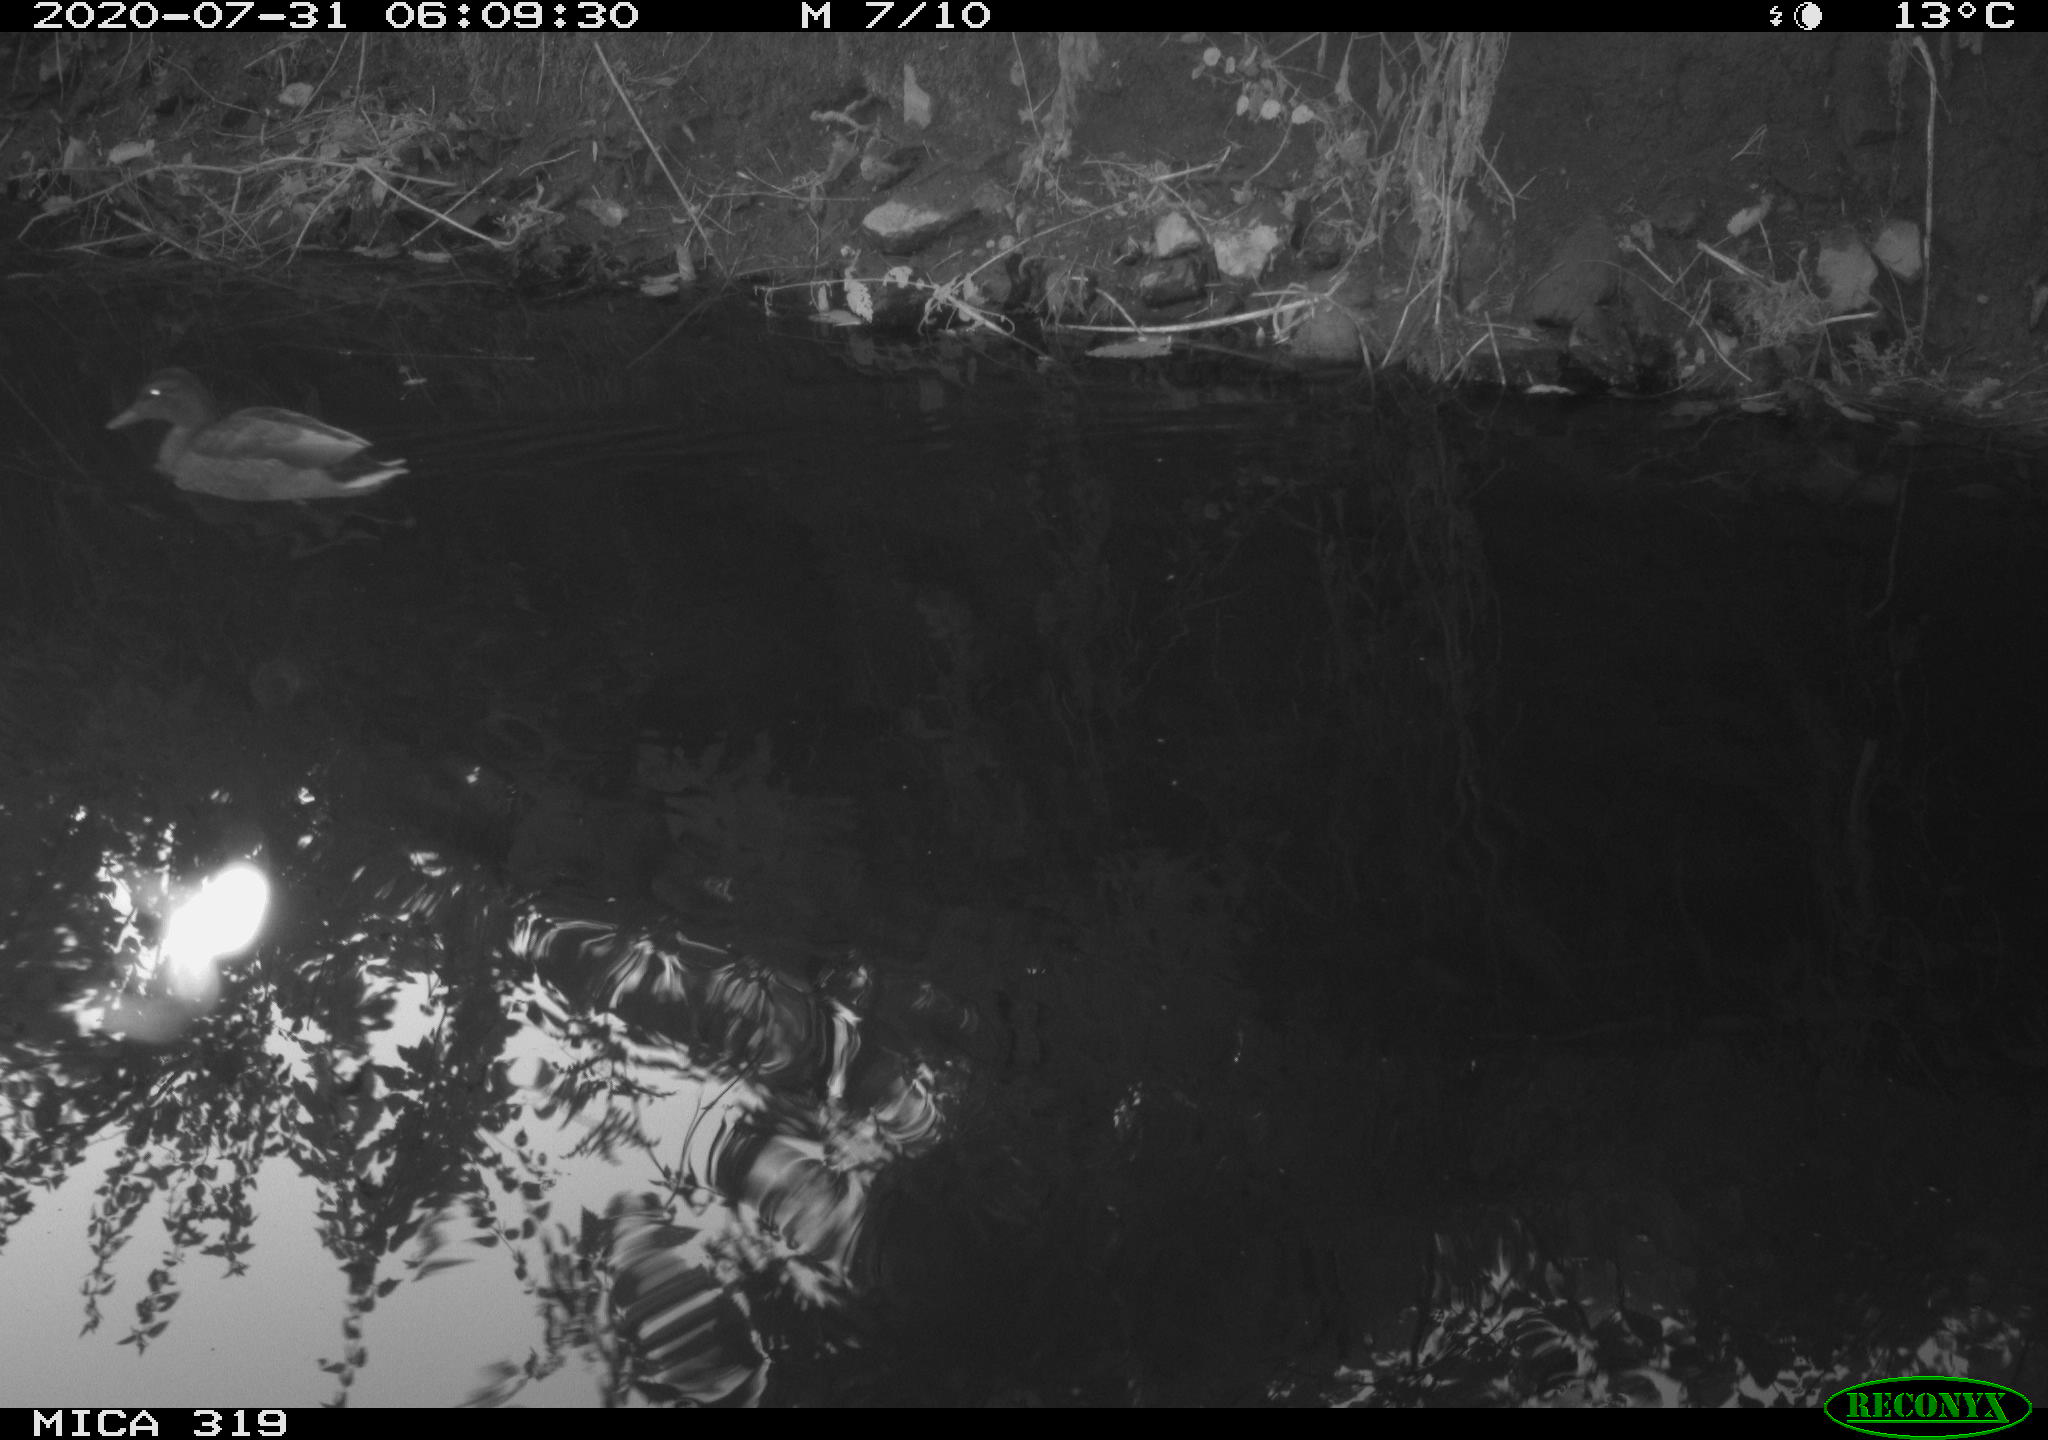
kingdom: Animalia
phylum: Chordata
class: Aves
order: Anseriformes
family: Anatidae
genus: Anas
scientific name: Anas platyrhynchos
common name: Mallard
